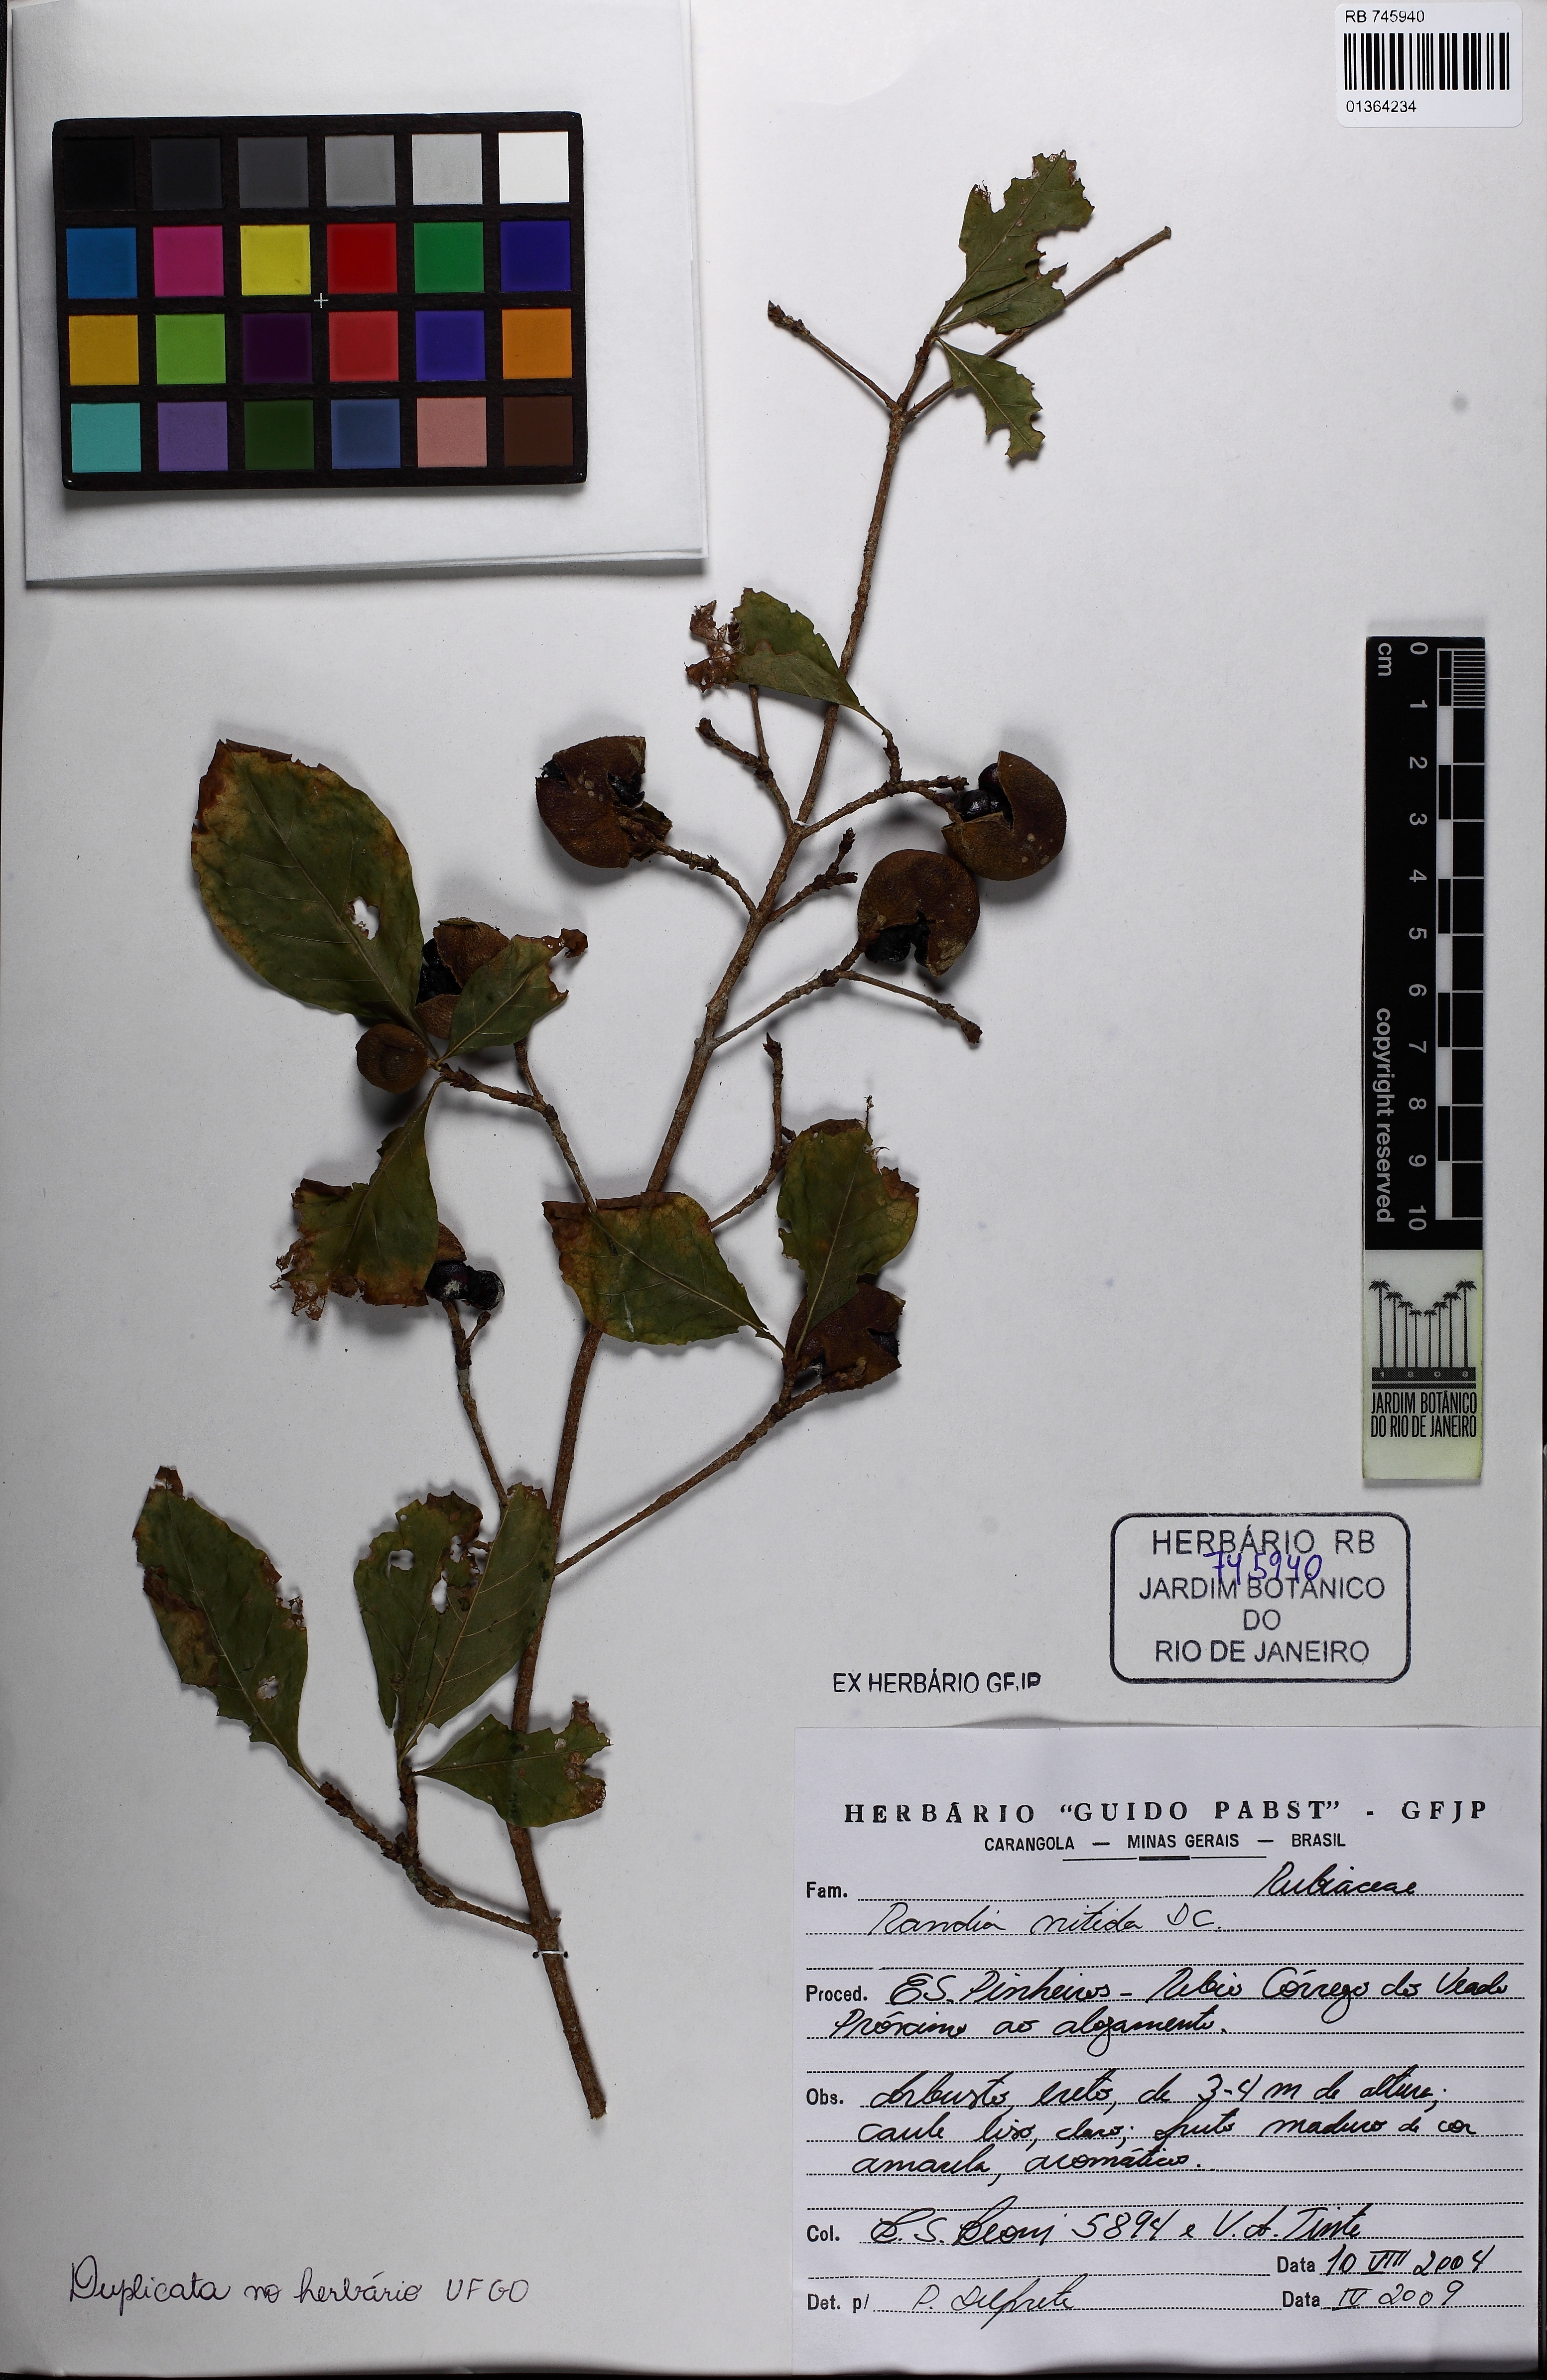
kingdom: Plantae
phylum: Tracheophyta
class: Magnoliopsida
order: Gentianales
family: Rubiaceae
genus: Randia
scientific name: Randia nitida
